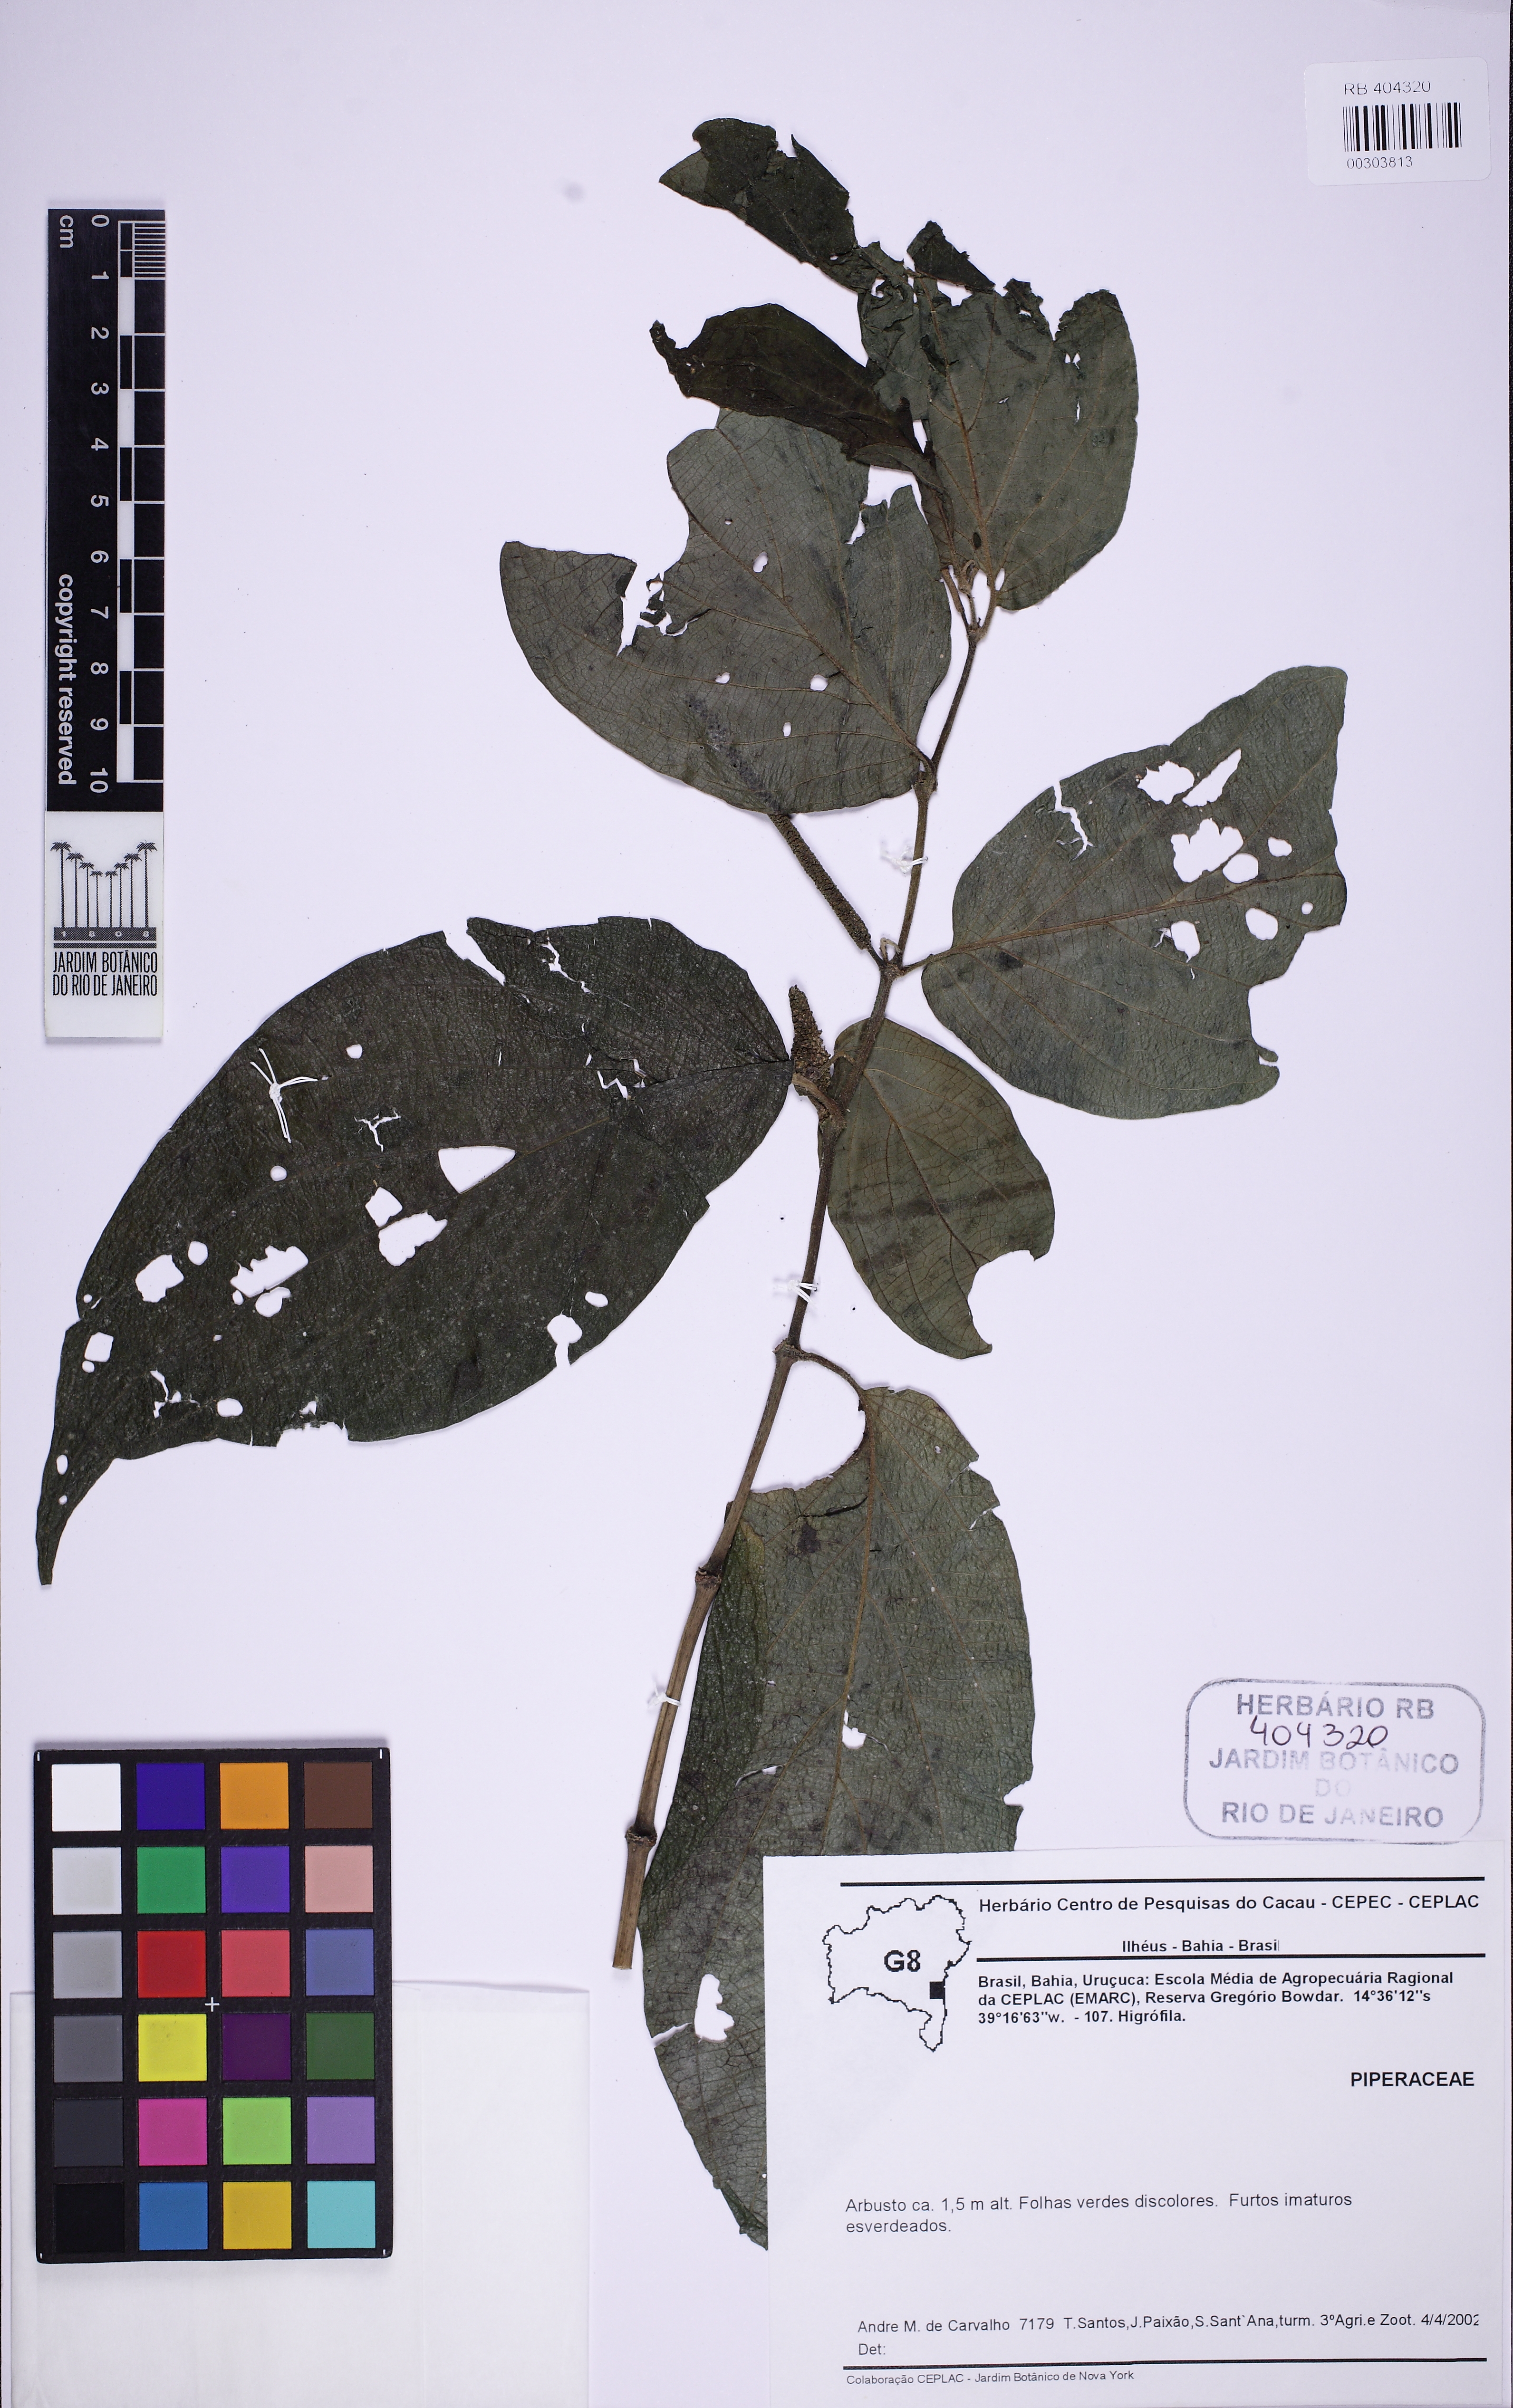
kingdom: Plantae
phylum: Tracheophyta
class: Magnoliopsida
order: Piperales
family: Piperaceae
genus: Piper
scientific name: Piper
